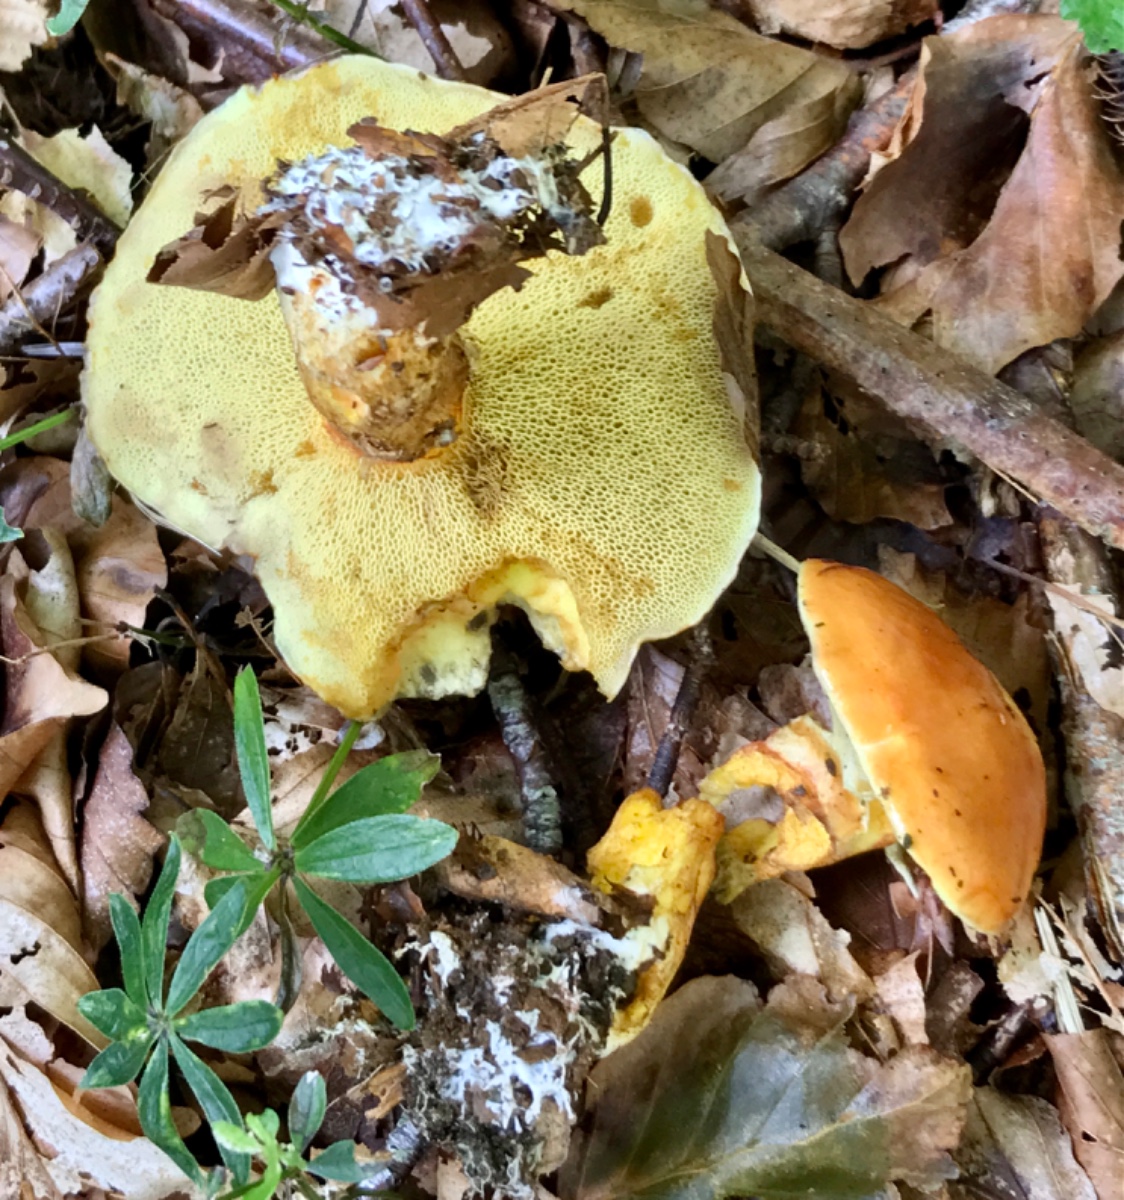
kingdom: Fungi
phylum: Basidiomycota
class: Agaricomycetes
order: Boletales
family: Suillaceae
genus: Suillus
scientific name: Suillus grevillei
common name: lærke-slimrørhat
